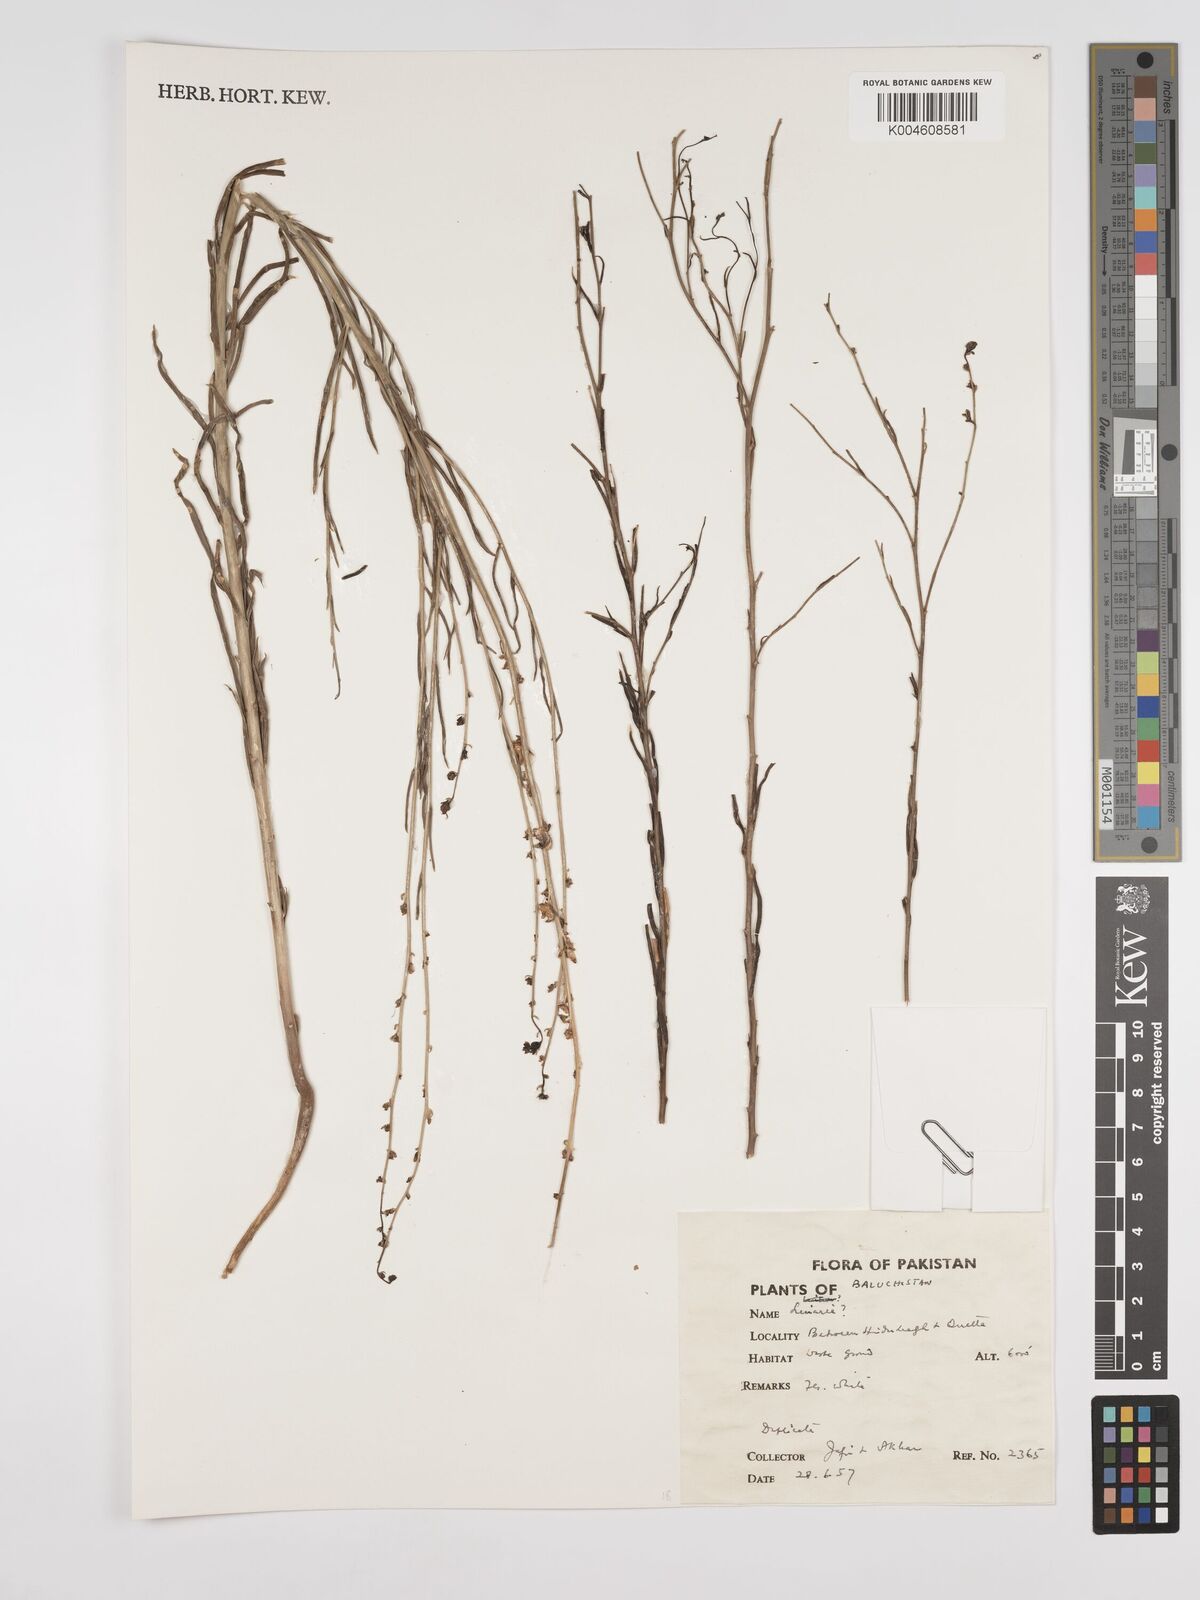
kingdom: Plantae
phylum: Tracheophyta
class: Magnoliopsida
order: Lamiales
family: Plantaginaceae
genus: Kickxia
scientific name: Kickxia
